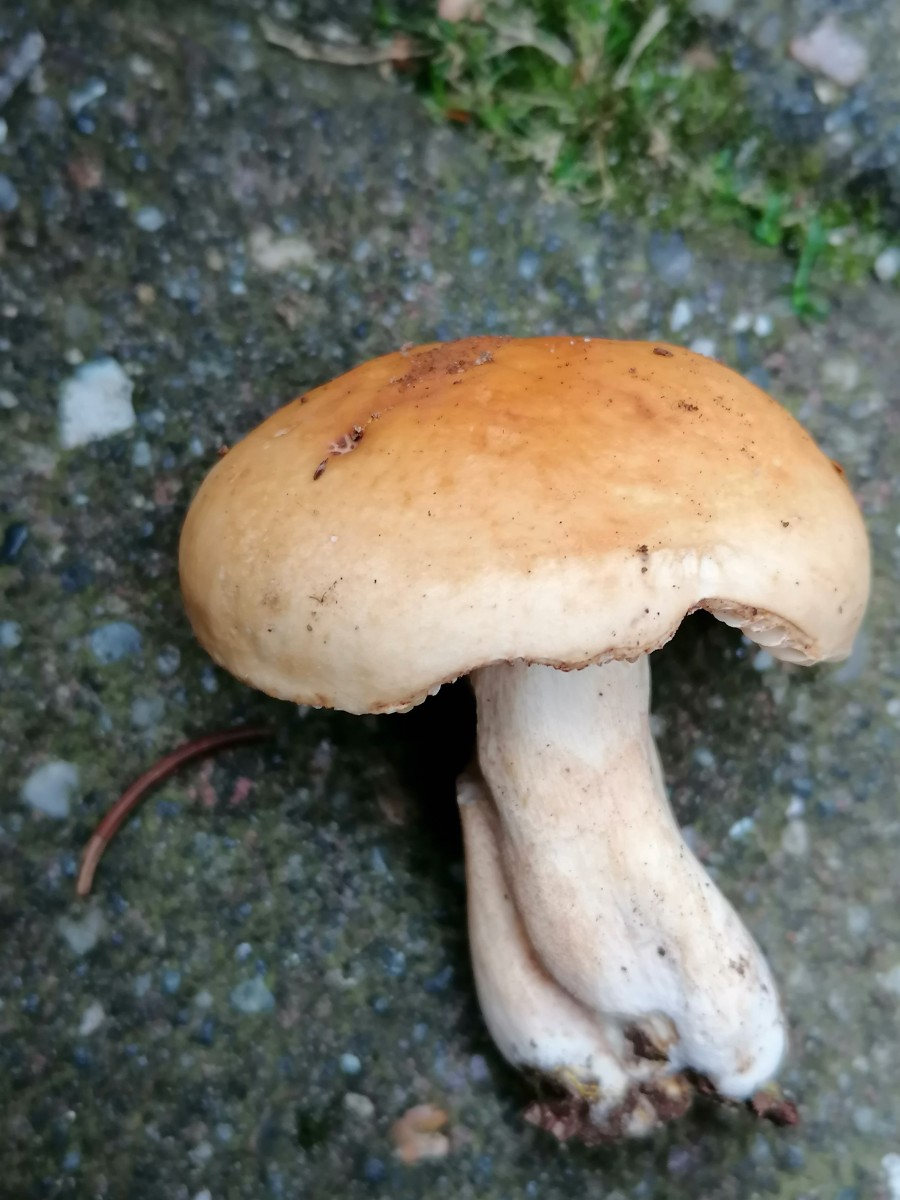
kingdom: Fungi
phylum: Basidiomycota
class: Agaricomycetes
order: Russulales
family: Russulaceae
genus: Russula
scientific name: Russula fellea
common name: galde-skørhat
